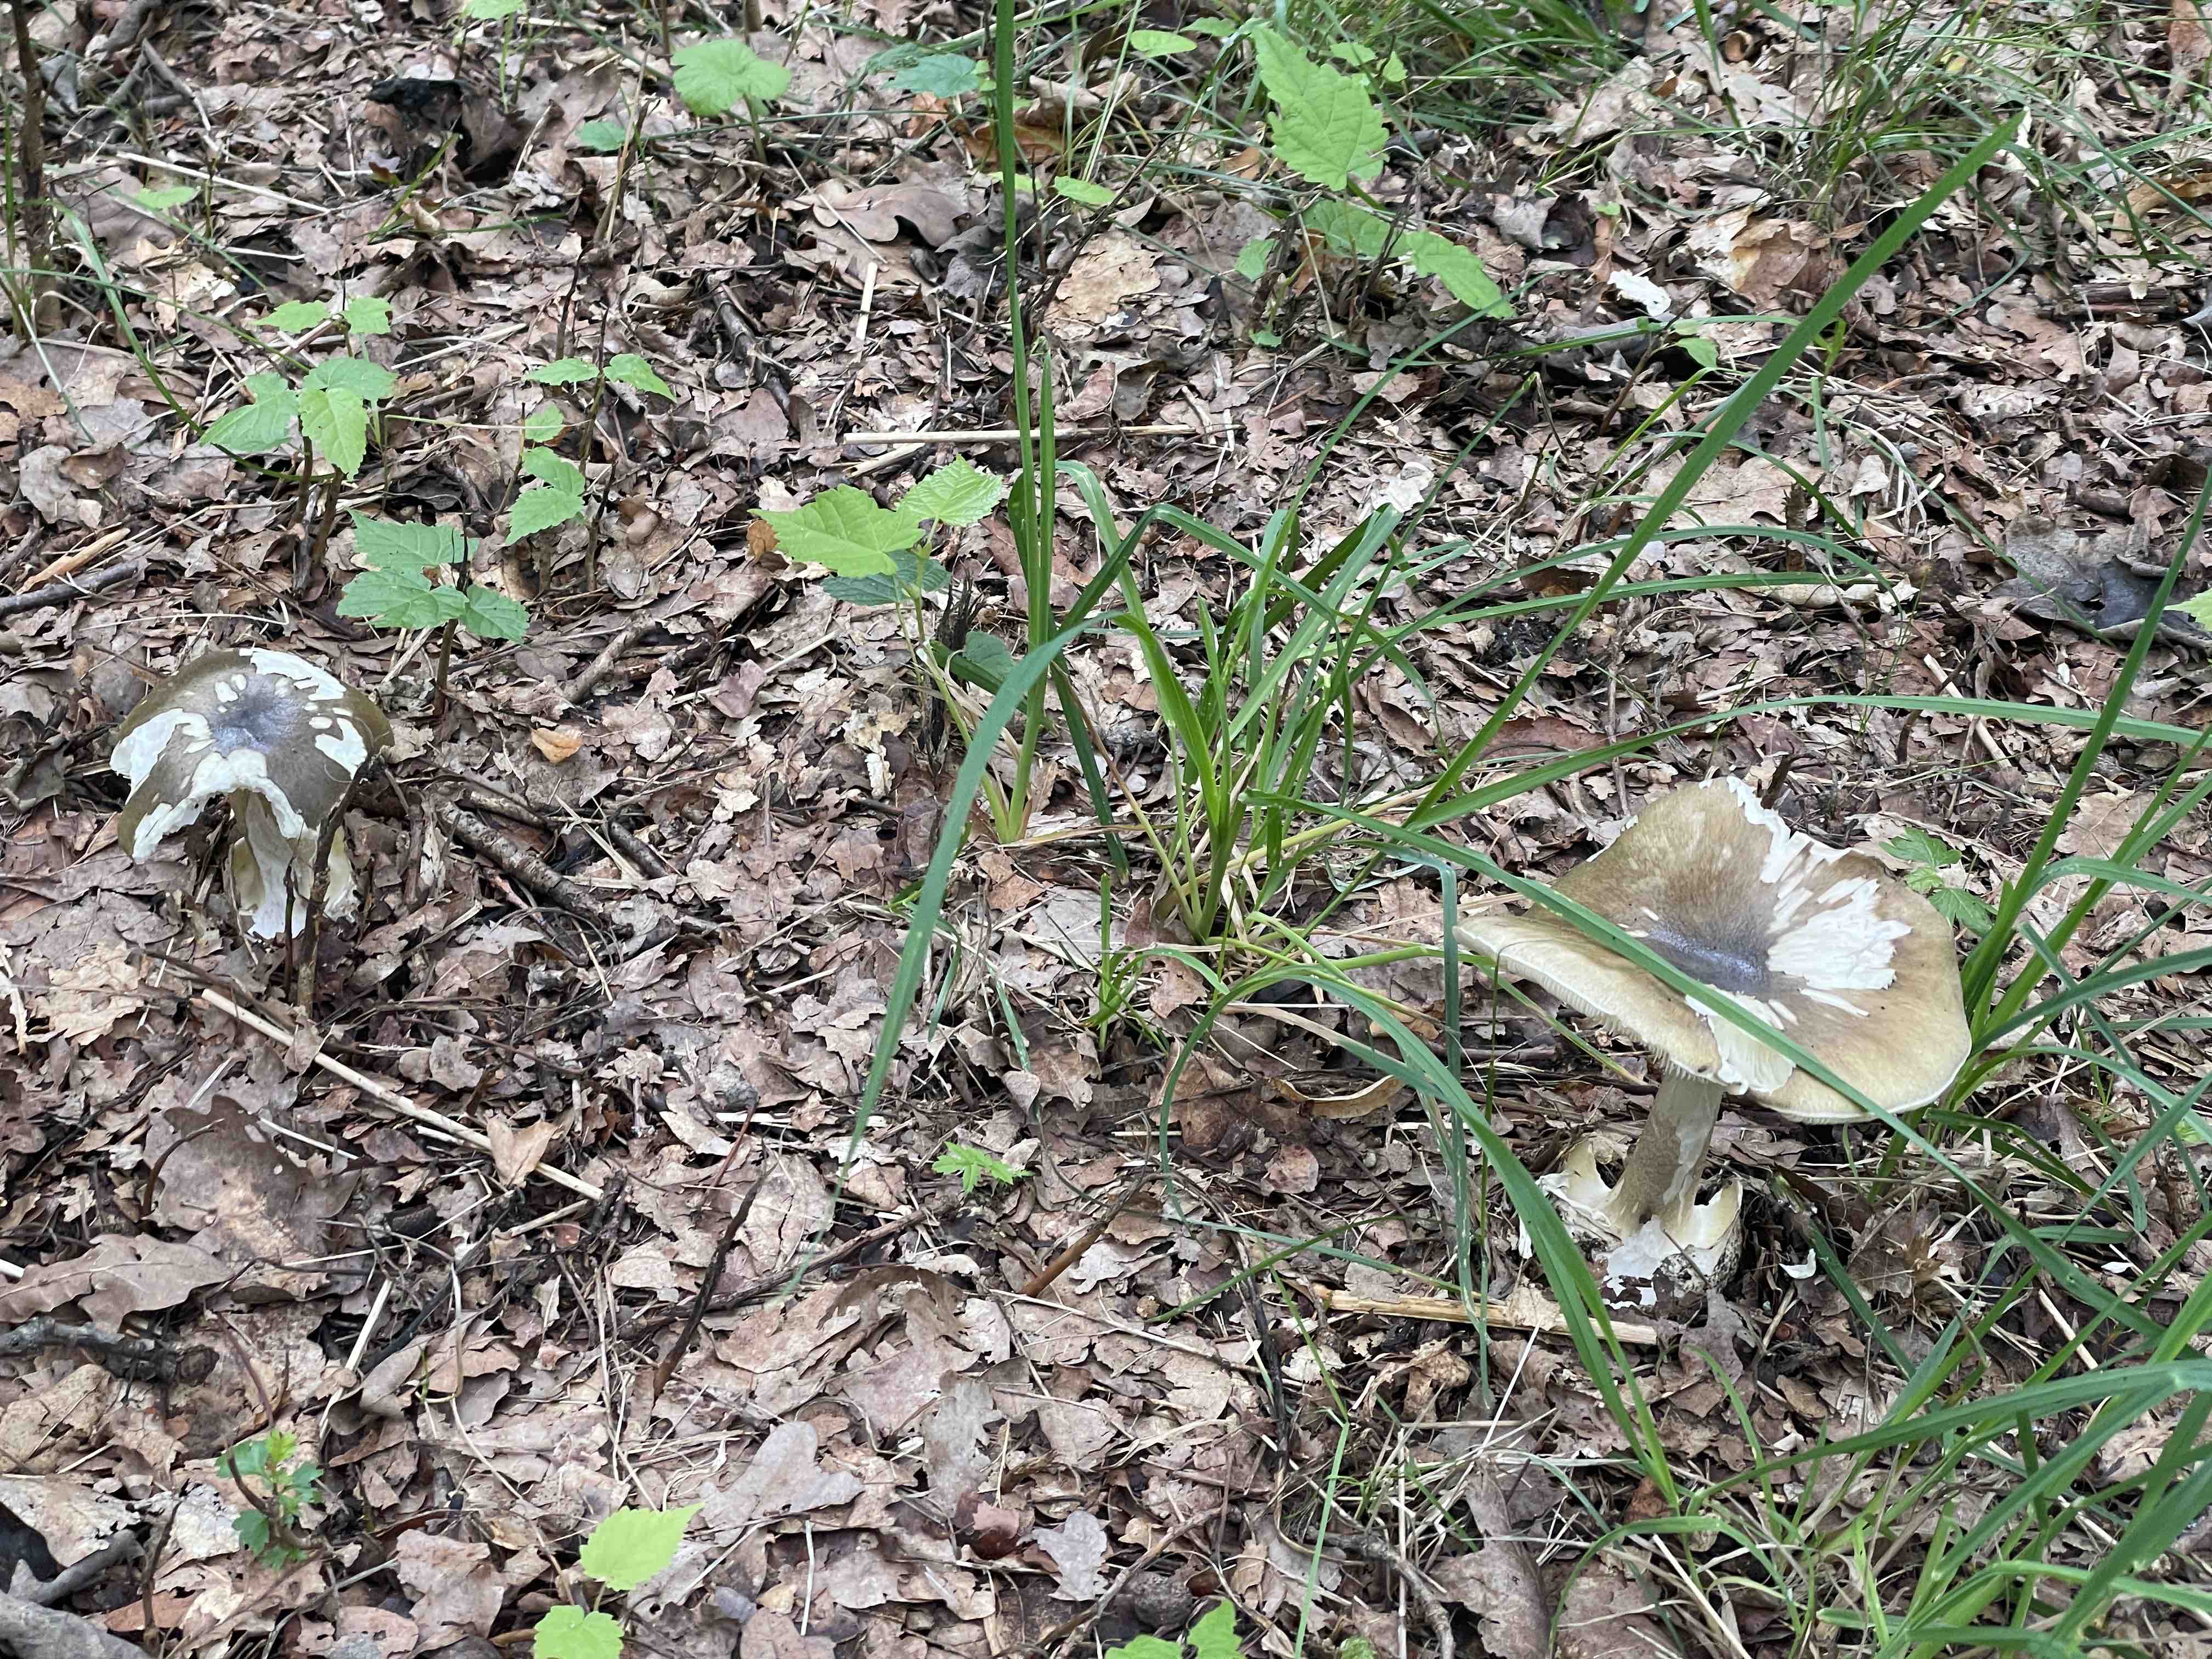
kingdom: Fungi
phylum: Basidiomycota
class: Agaricomycetes
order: Agaricales
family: Amanitaceae
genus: Amanita
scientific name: Amanita phalloides
